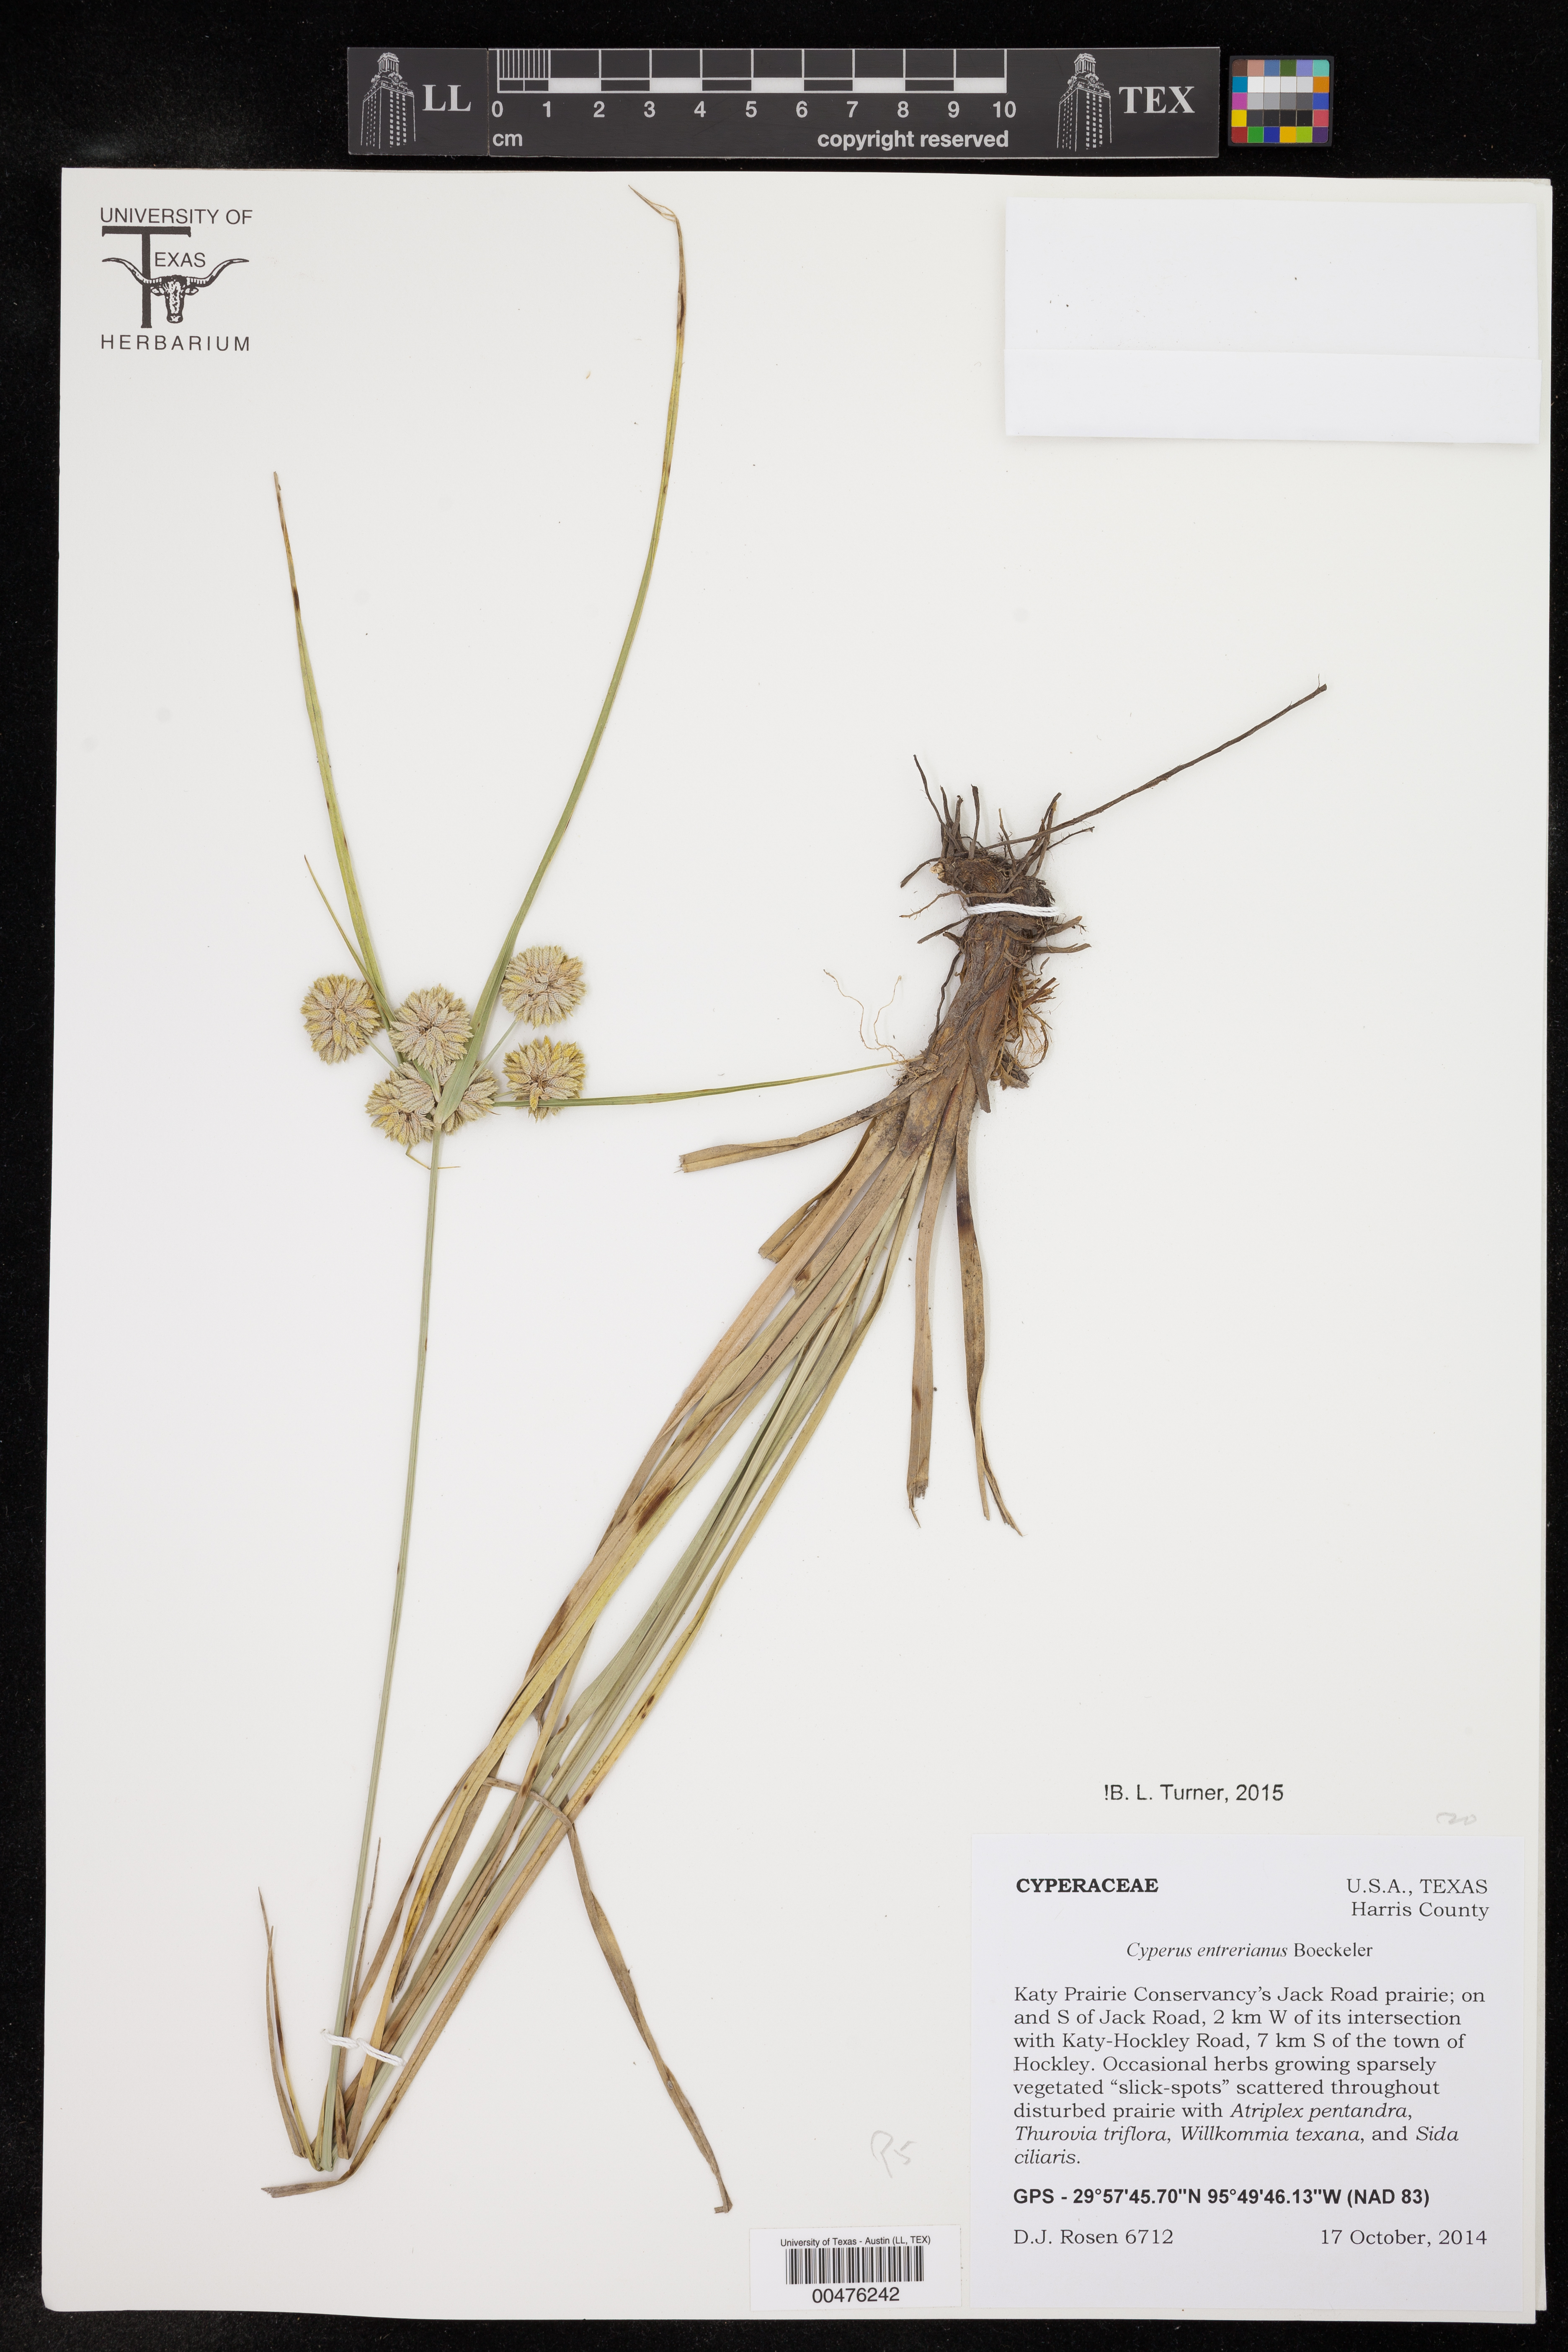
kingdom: Plantae
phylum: Tracheophyta
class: Liliopsida
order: Poales
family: Cyperaceae
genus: Cyperus
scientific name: Cyperus entrerianus
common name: Woodrush flatsedge
